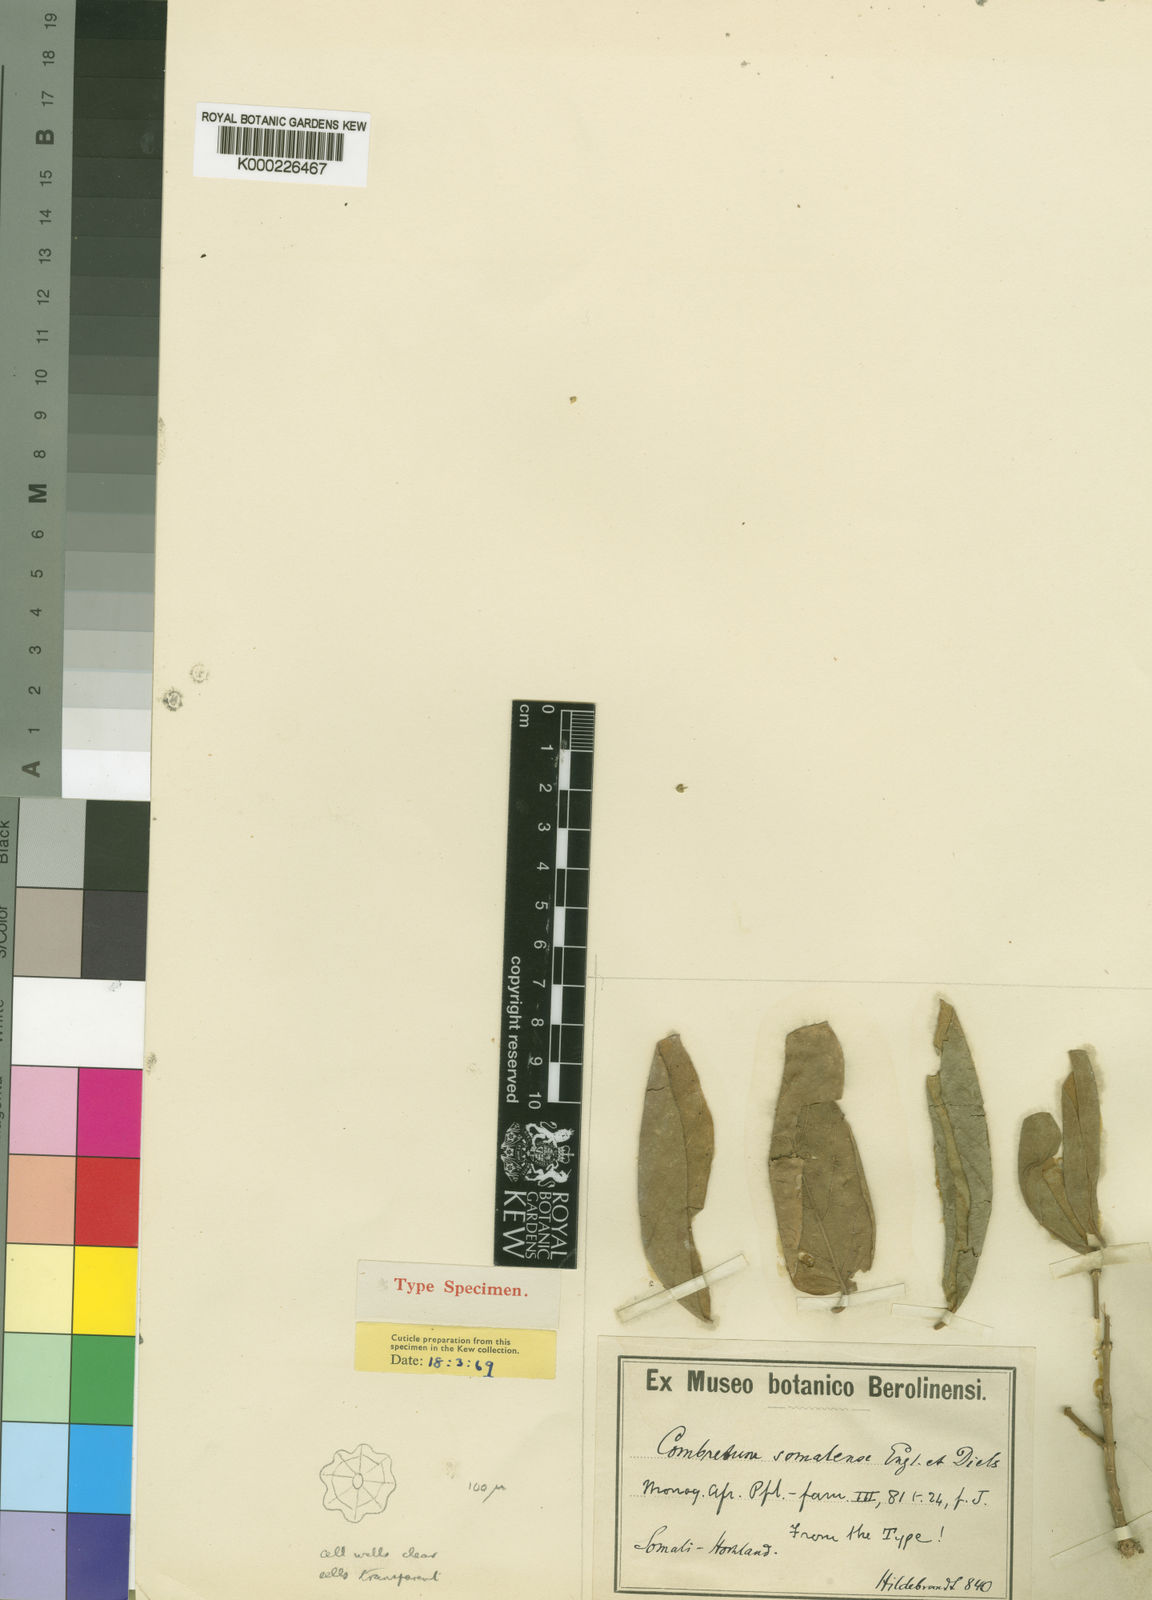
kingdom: Plantae
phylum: Tracheophyta
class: Magnoliopsida
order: Myrtales
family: Combretaceae
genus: Combretum
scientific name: Combretum molle
